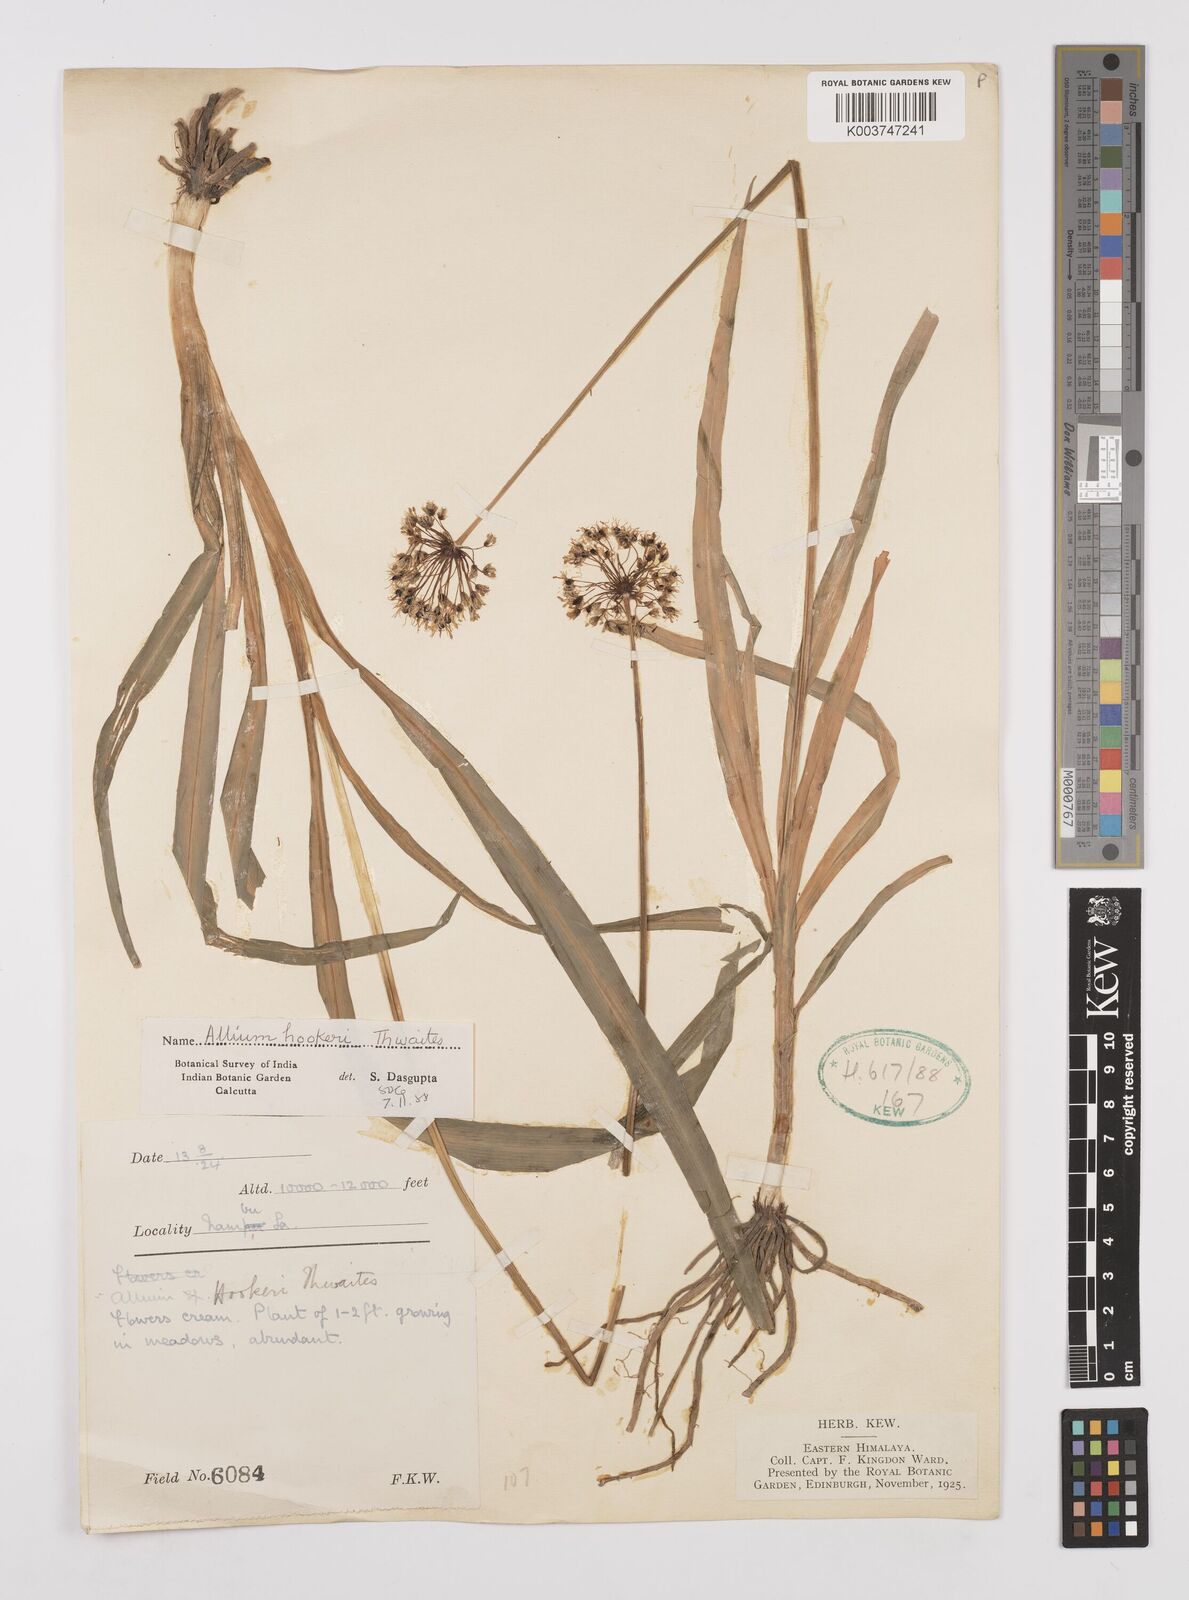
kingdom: Plantae
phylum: Tracheophyta
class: Liliopsida
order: Asparagales
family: Amaryllidaceae
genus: Allium
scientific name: Allium hookeri
